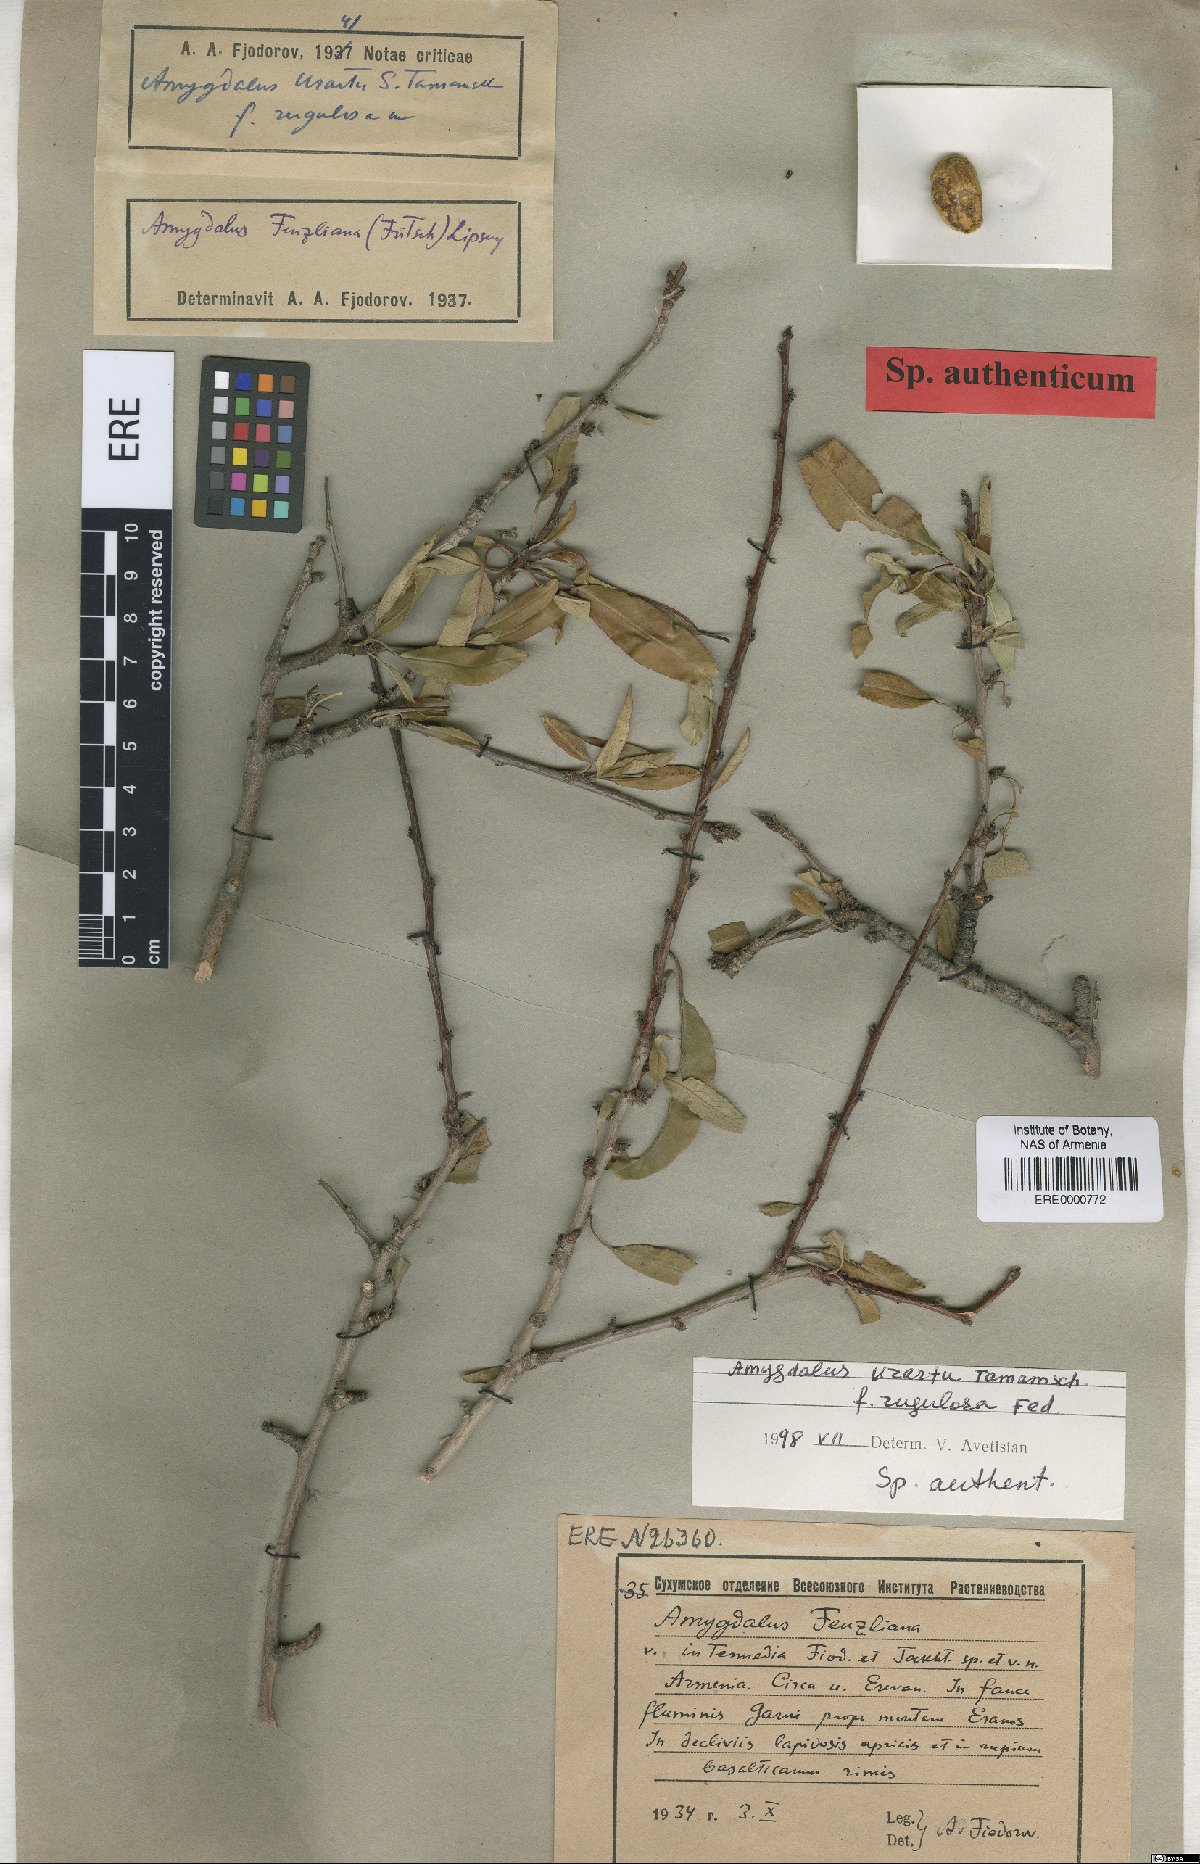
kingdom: Plantae
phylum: Tracheophyta
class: Magnoliopsida
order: Rosales
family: Rosaceae
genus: Prunus
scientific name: Prunus urartu
